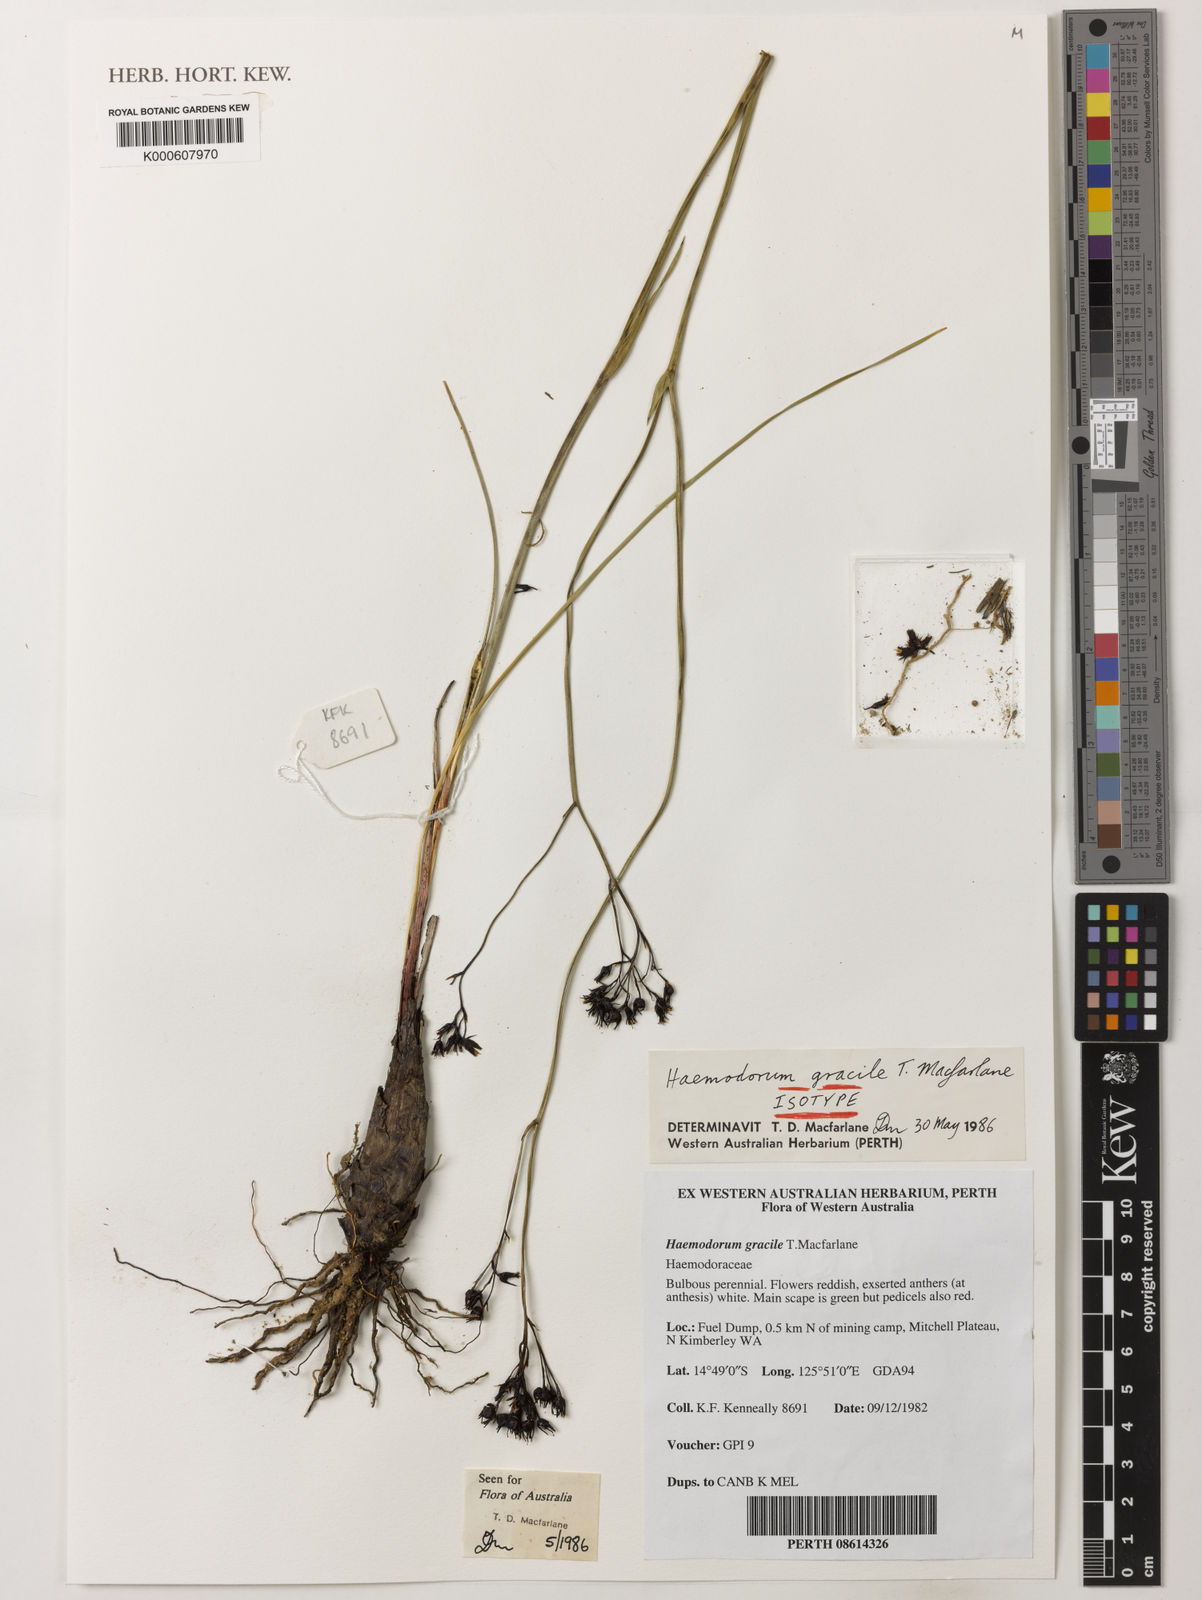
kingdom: Plantae
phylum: Tracheophyta
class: Liliopsida
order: Commelinales
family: Haemodoraceae
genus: Haemodorum
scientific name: Haemodorum gracile
